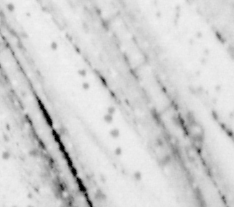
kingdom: Animalia
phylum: Chordata
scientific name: Chordata
